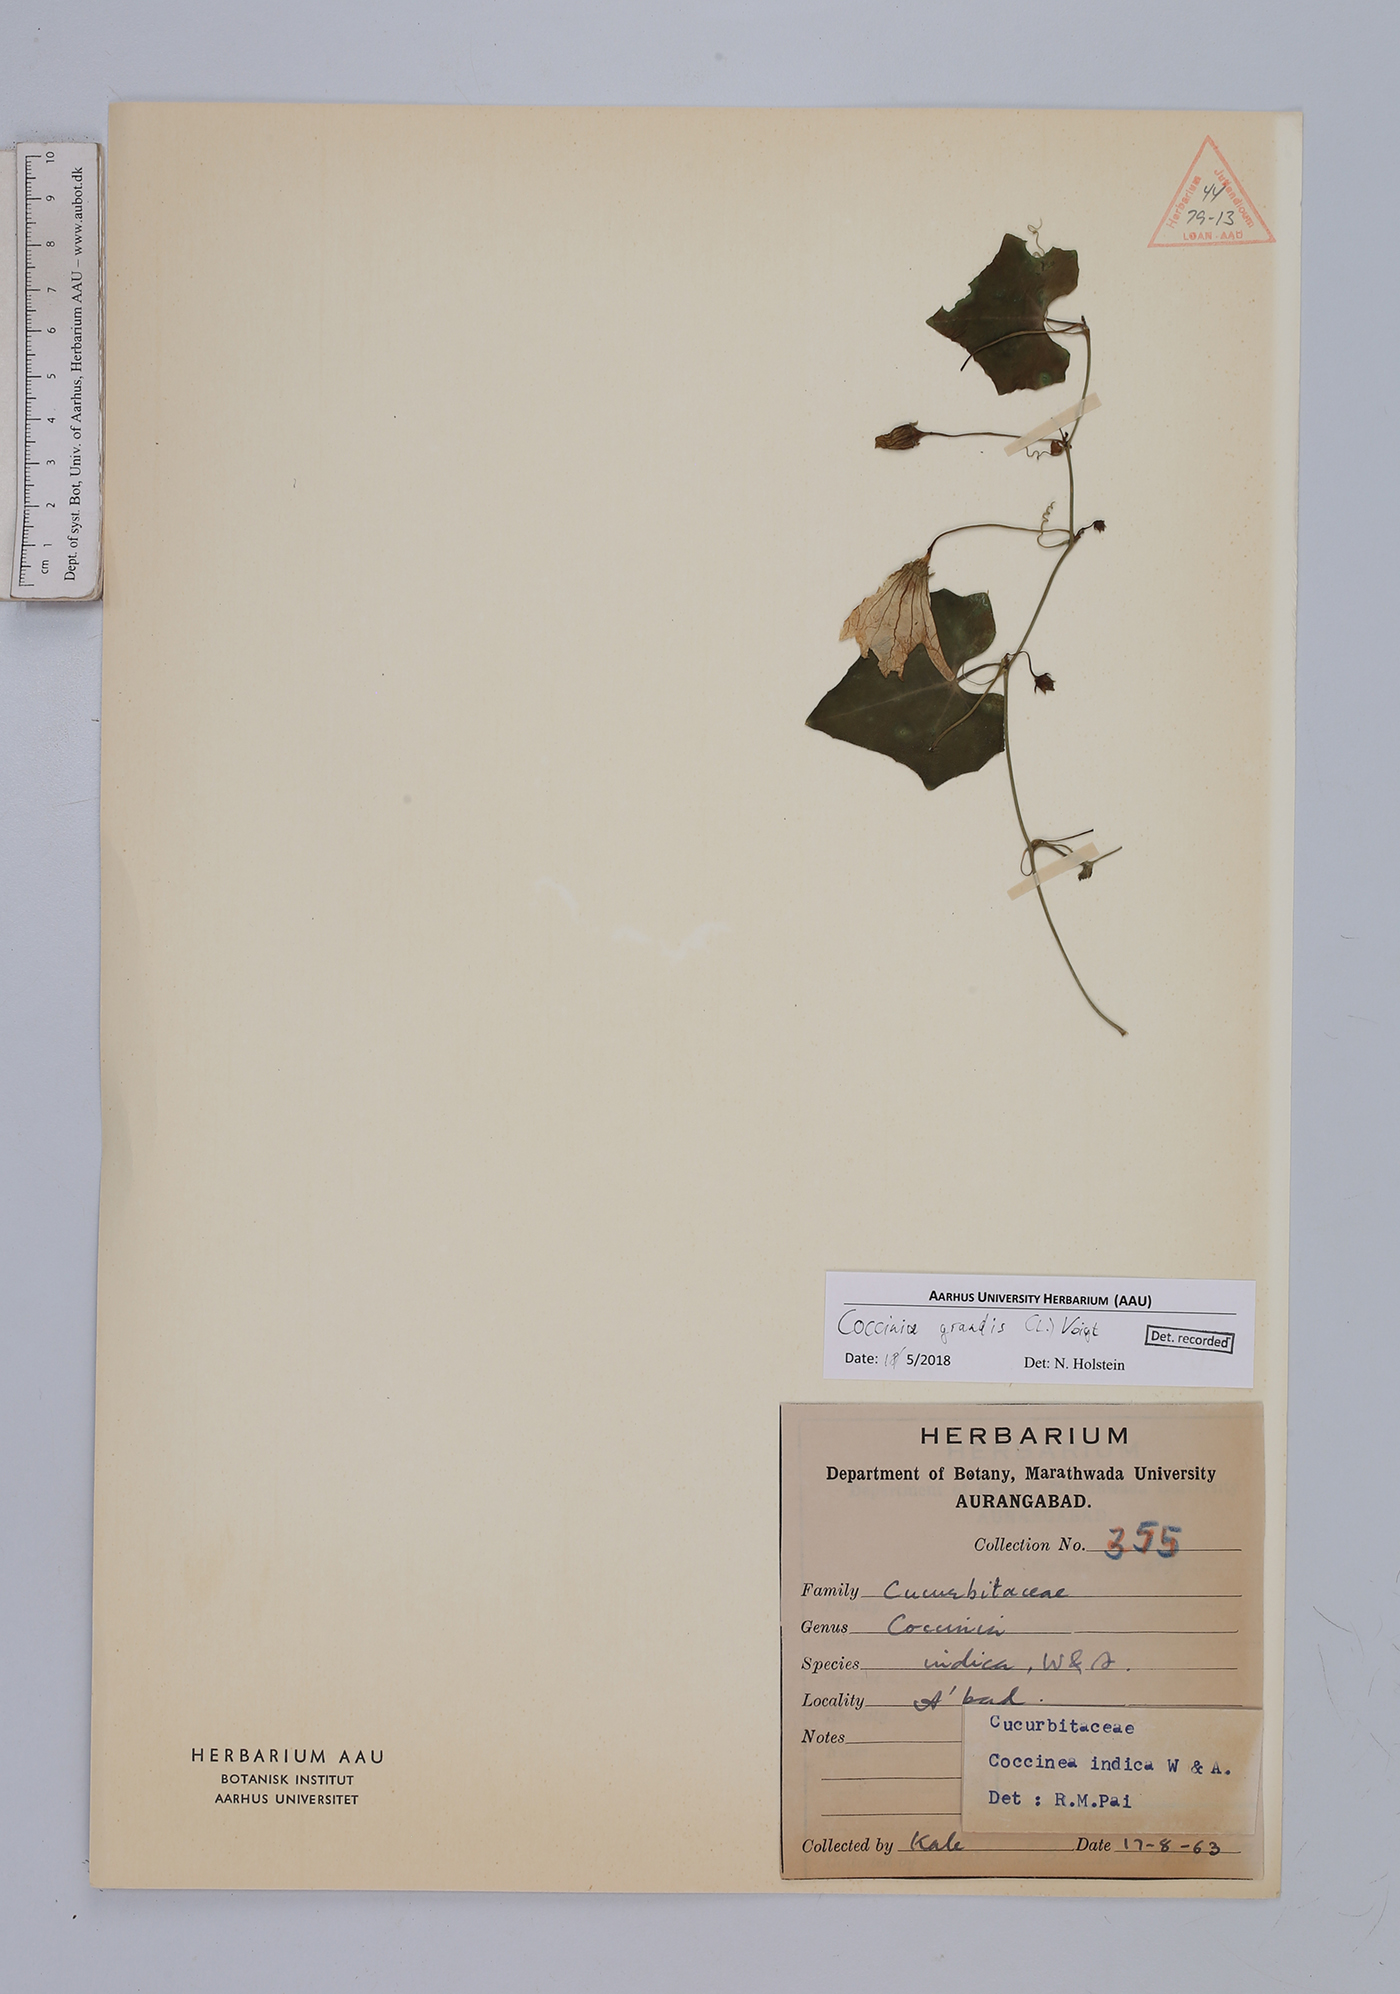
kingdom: Plantae
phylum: Tracheophyta
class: Magnoliopsida
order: Cucurbitales
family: Cucurbitaceae
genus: Coccinia
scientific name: Coccinia grandis
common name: Ivy gourd
